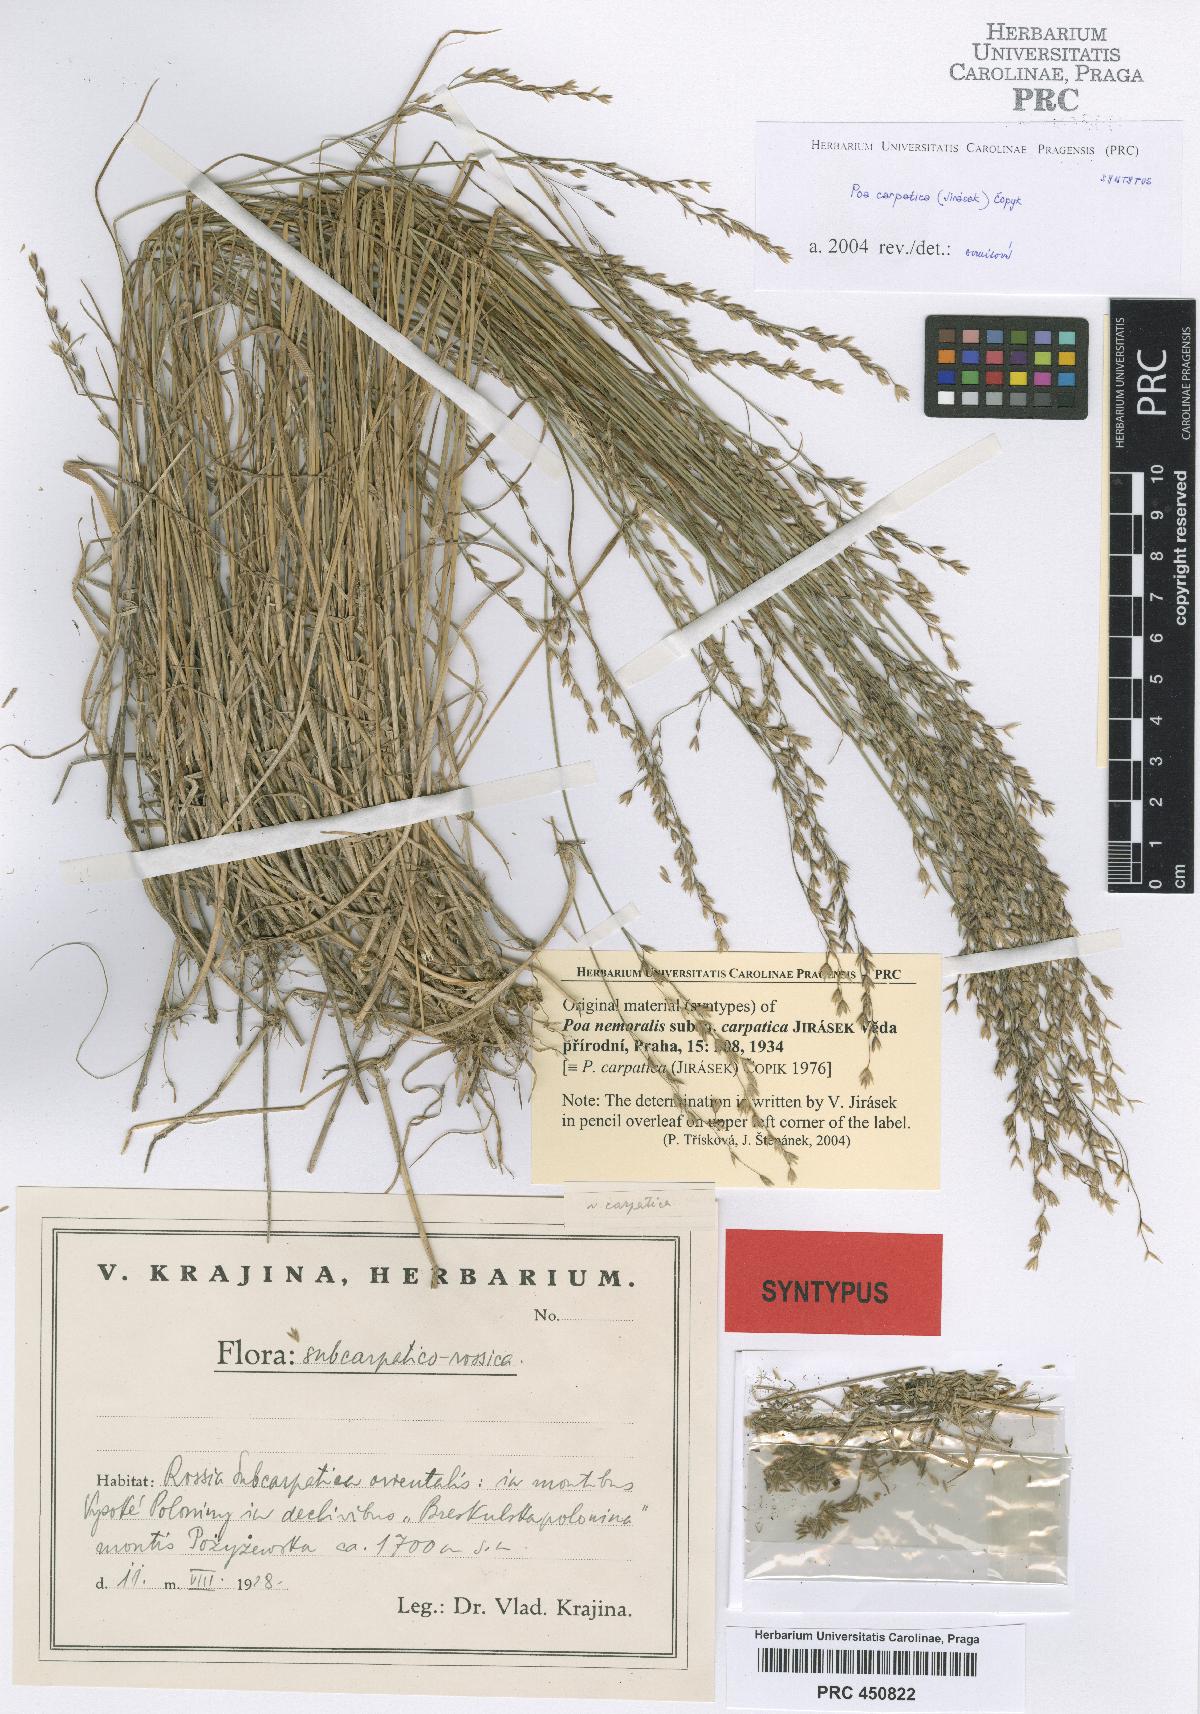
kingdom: Plantae
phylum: Tracheophyta
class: Liliopsida
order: Poales
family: Poaceae
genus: Poa
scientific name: Poa carpatica
